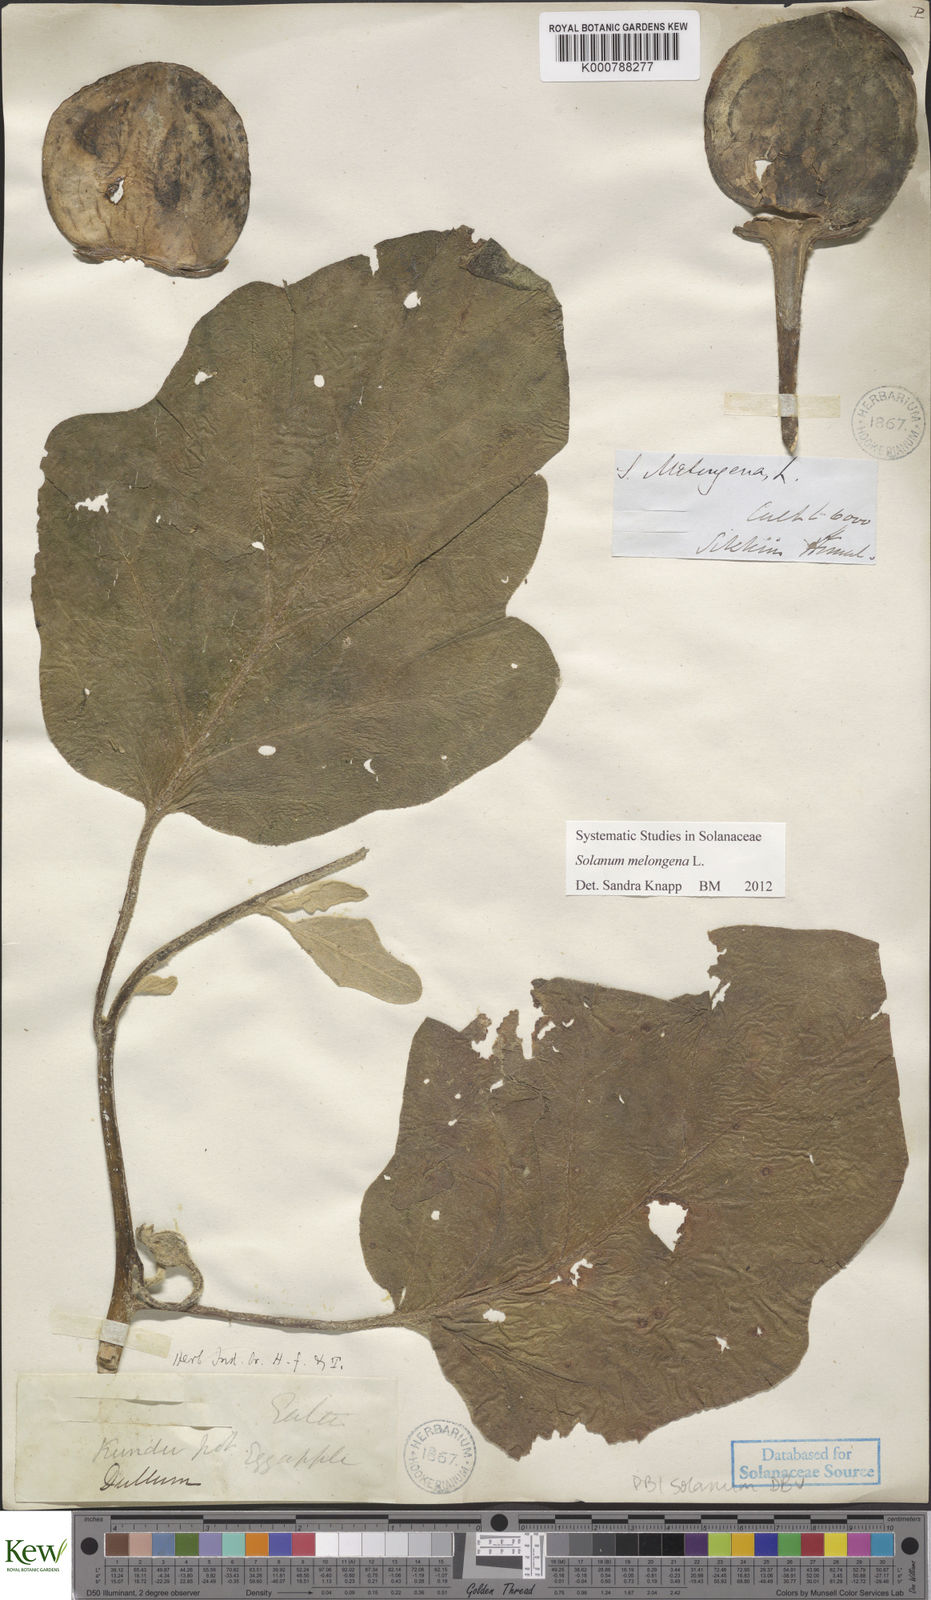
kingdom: Plantae
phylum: Tracheophyta
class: Magnoliopsida
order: Solanales
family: Solanaceae
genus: Solanum
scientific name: Solanum melongena
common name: Eggplant
